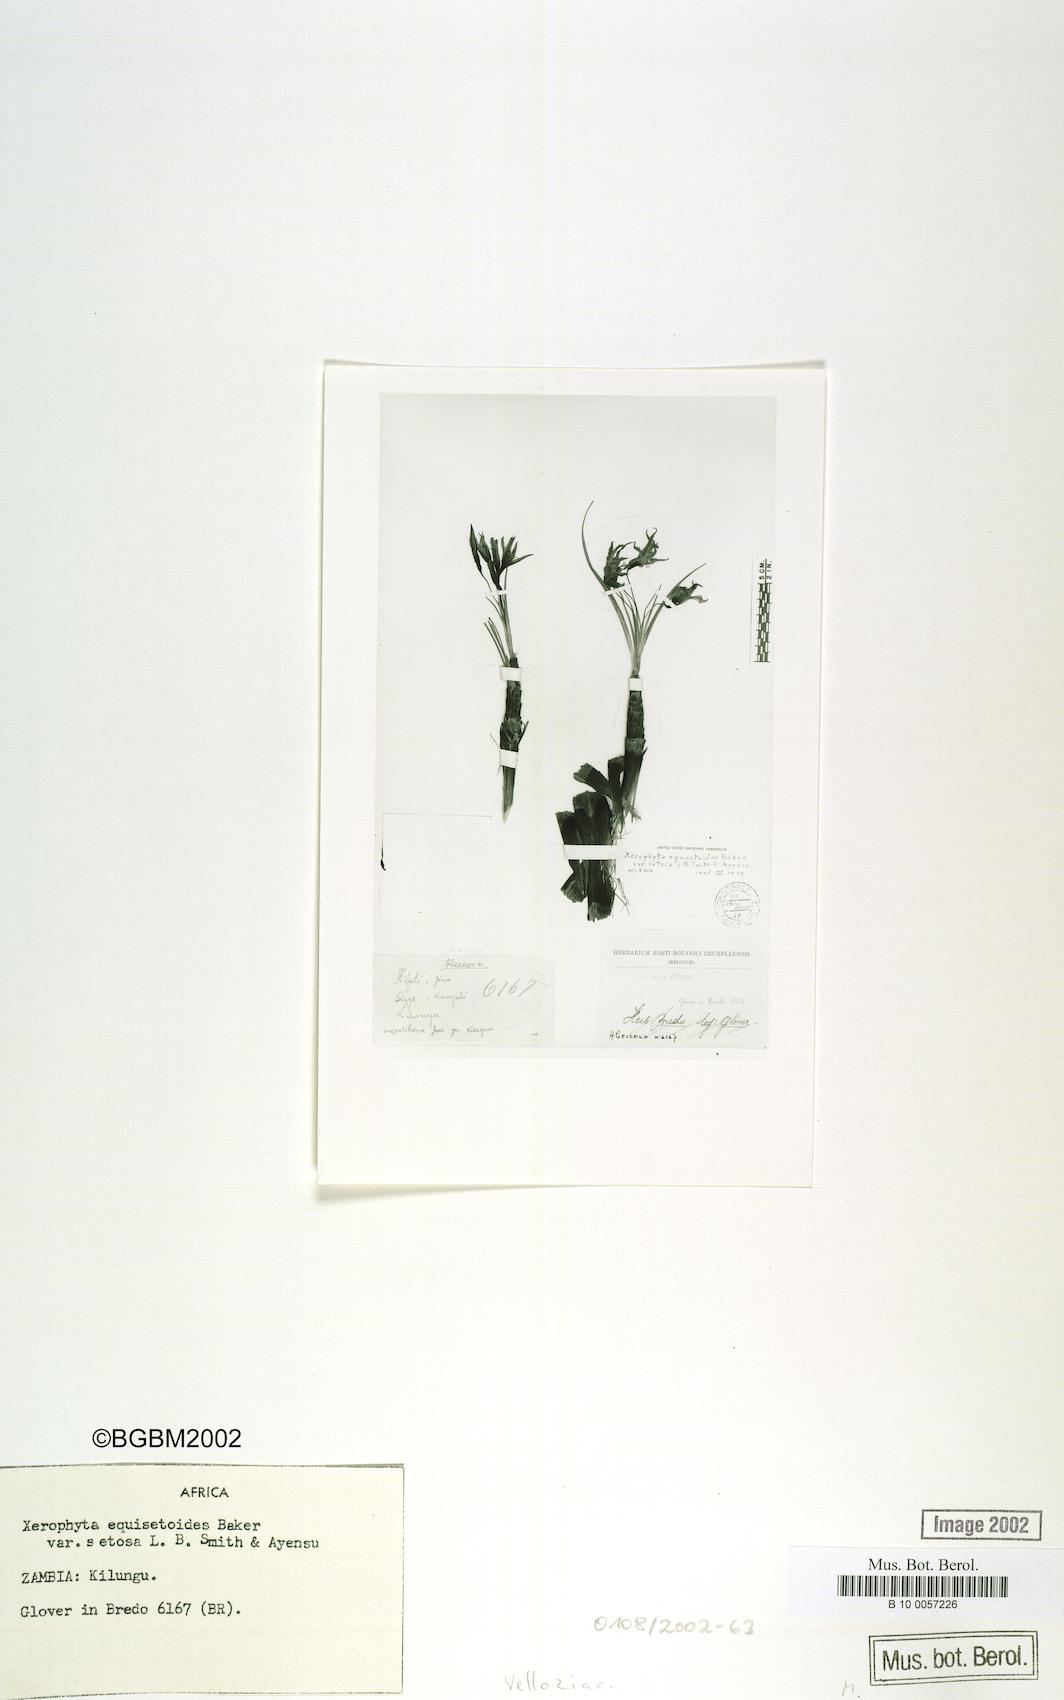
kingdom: Plantae
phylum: Tracheophyta
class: Liliopsida
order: Pandanales
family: Velloziaceae
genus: Xerophyta
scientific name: Xerophyta equisetoides
